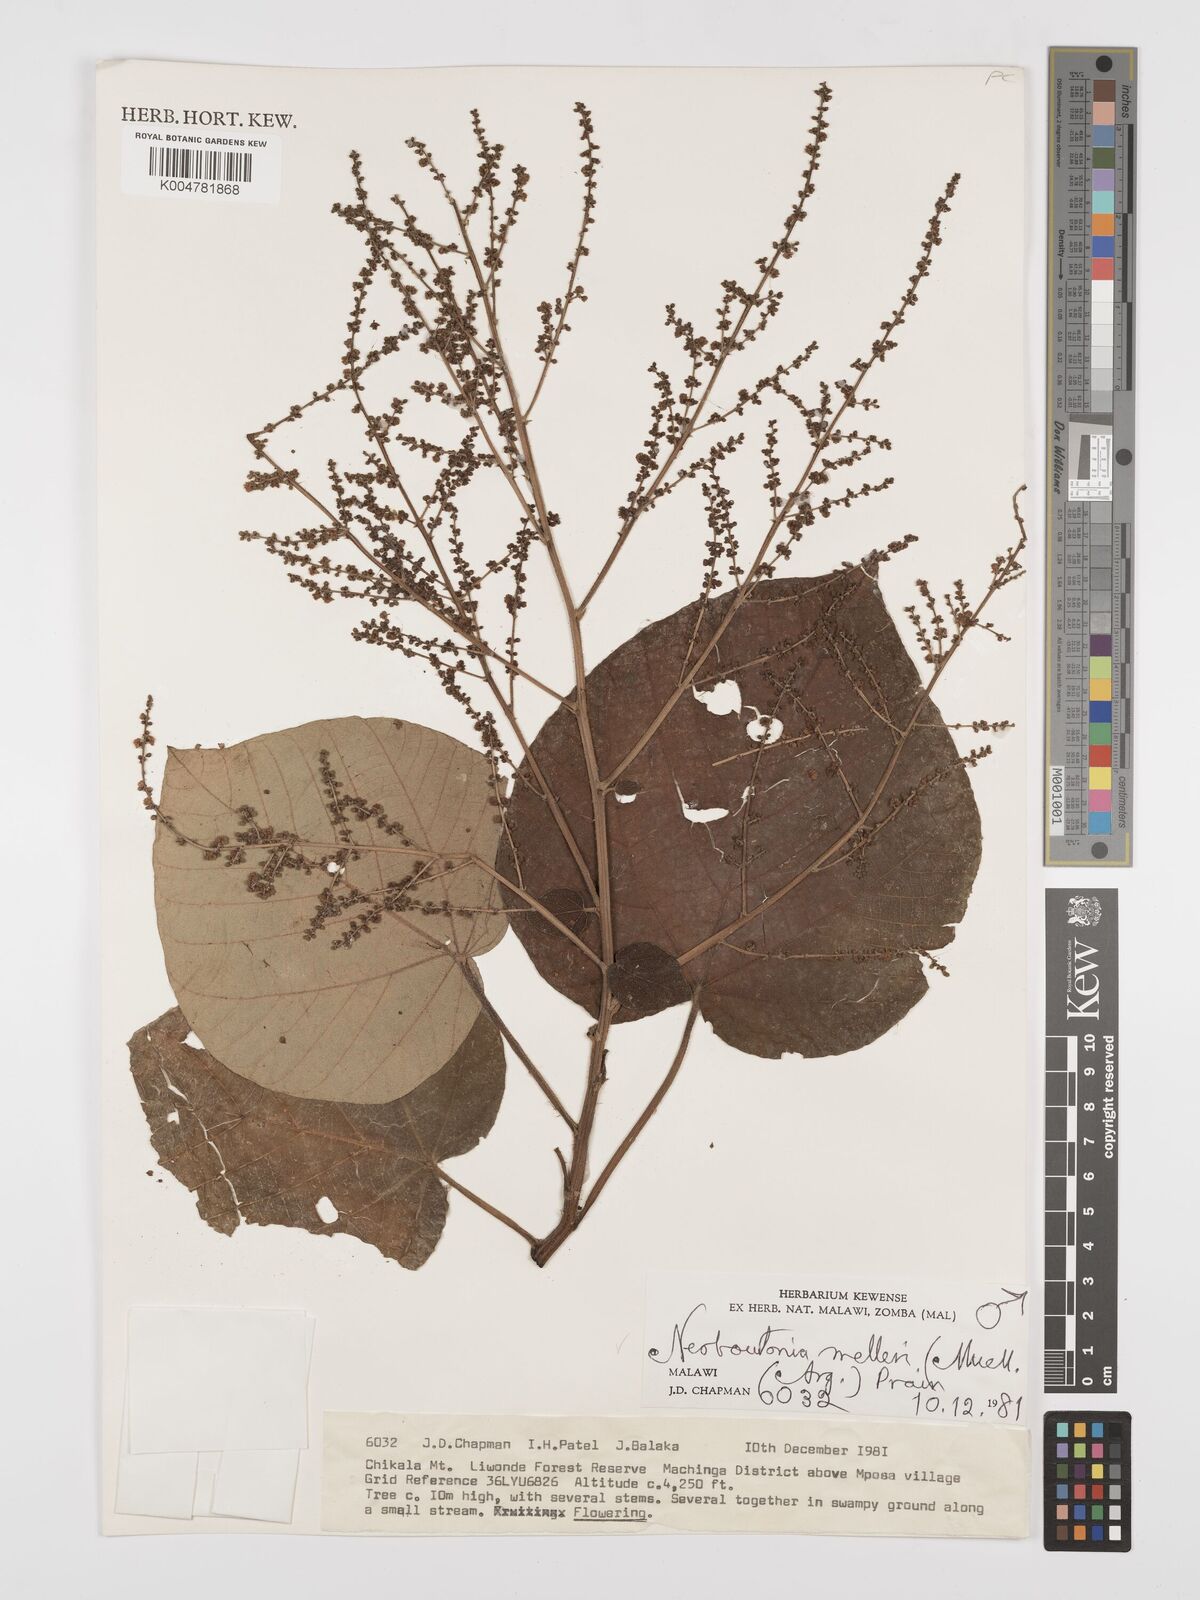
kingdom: Plantae
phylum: Tracheophyta
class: Magnoliopsida
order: Malpighiales
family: Euphorbiaceae
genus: Neoboutonia
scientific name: Neoboutonia melleri
